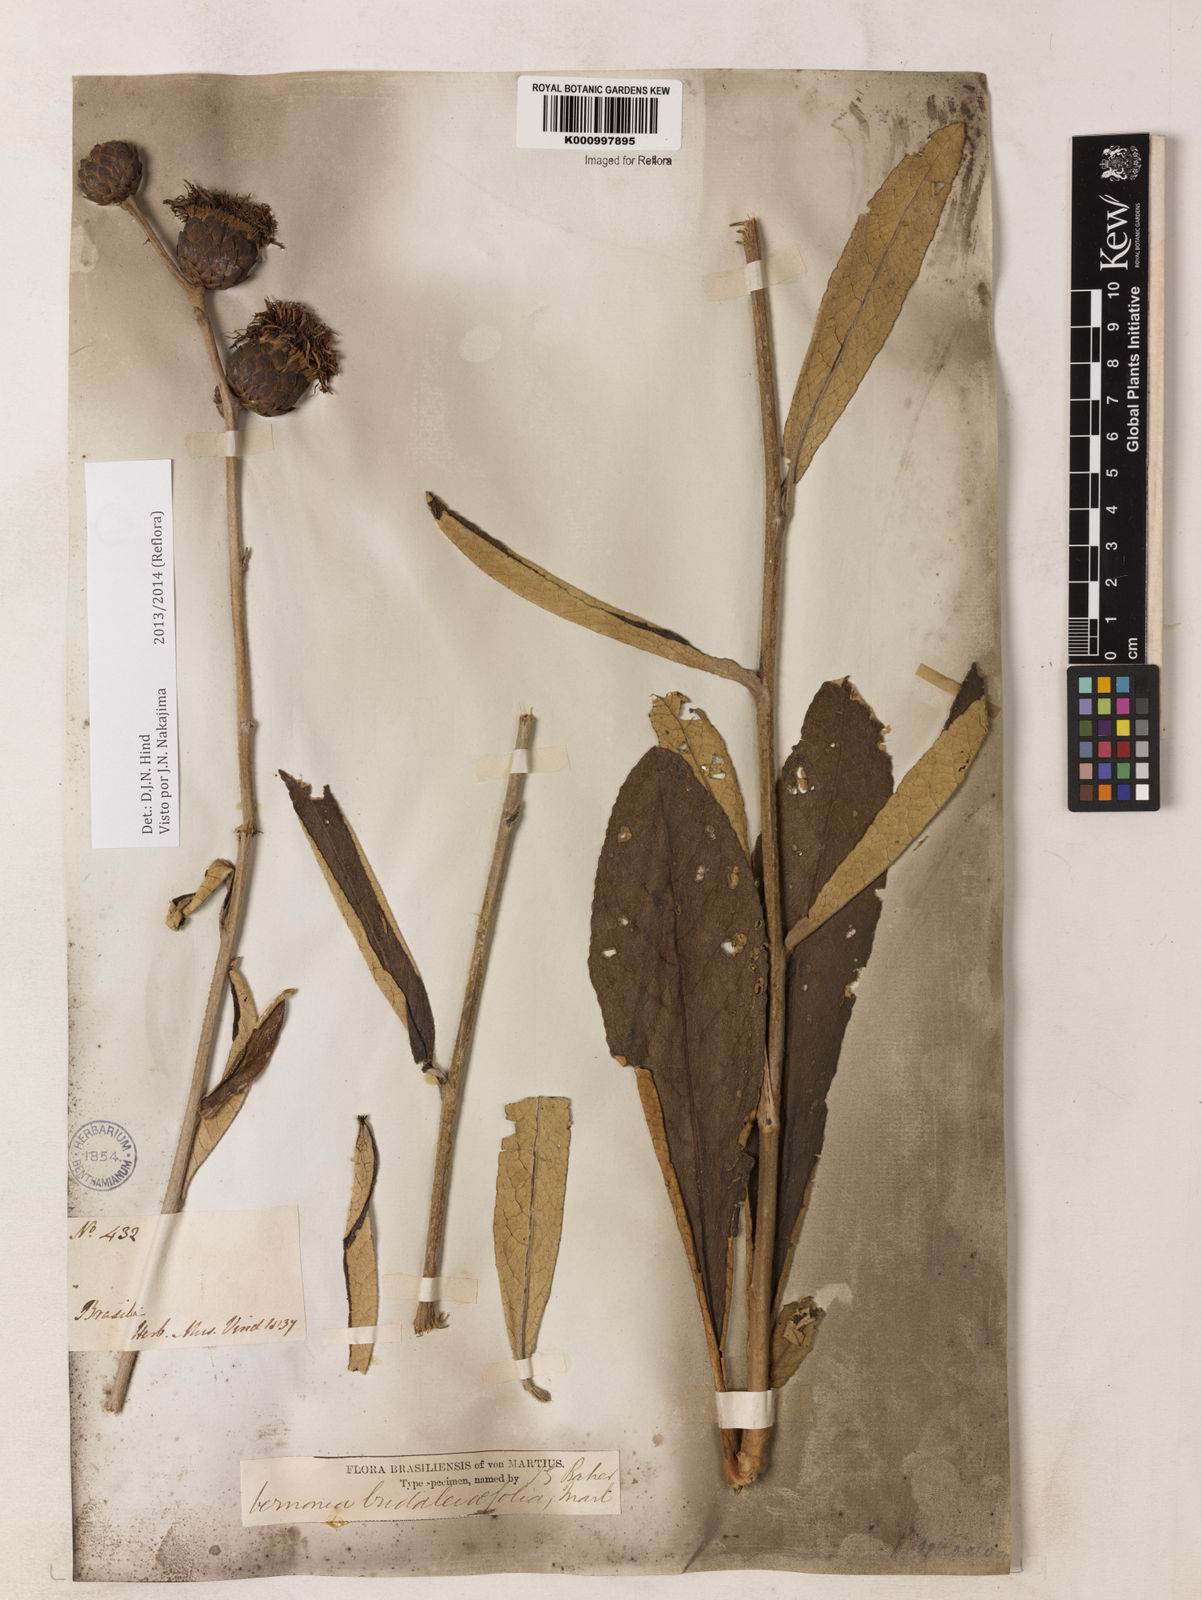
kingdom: Plantae
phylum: Tracheophyta
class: Magnoliopsida
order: Asterales
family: Asteraceae
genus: Lessingianthus
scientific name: Lessingianthus buddlejifolius
